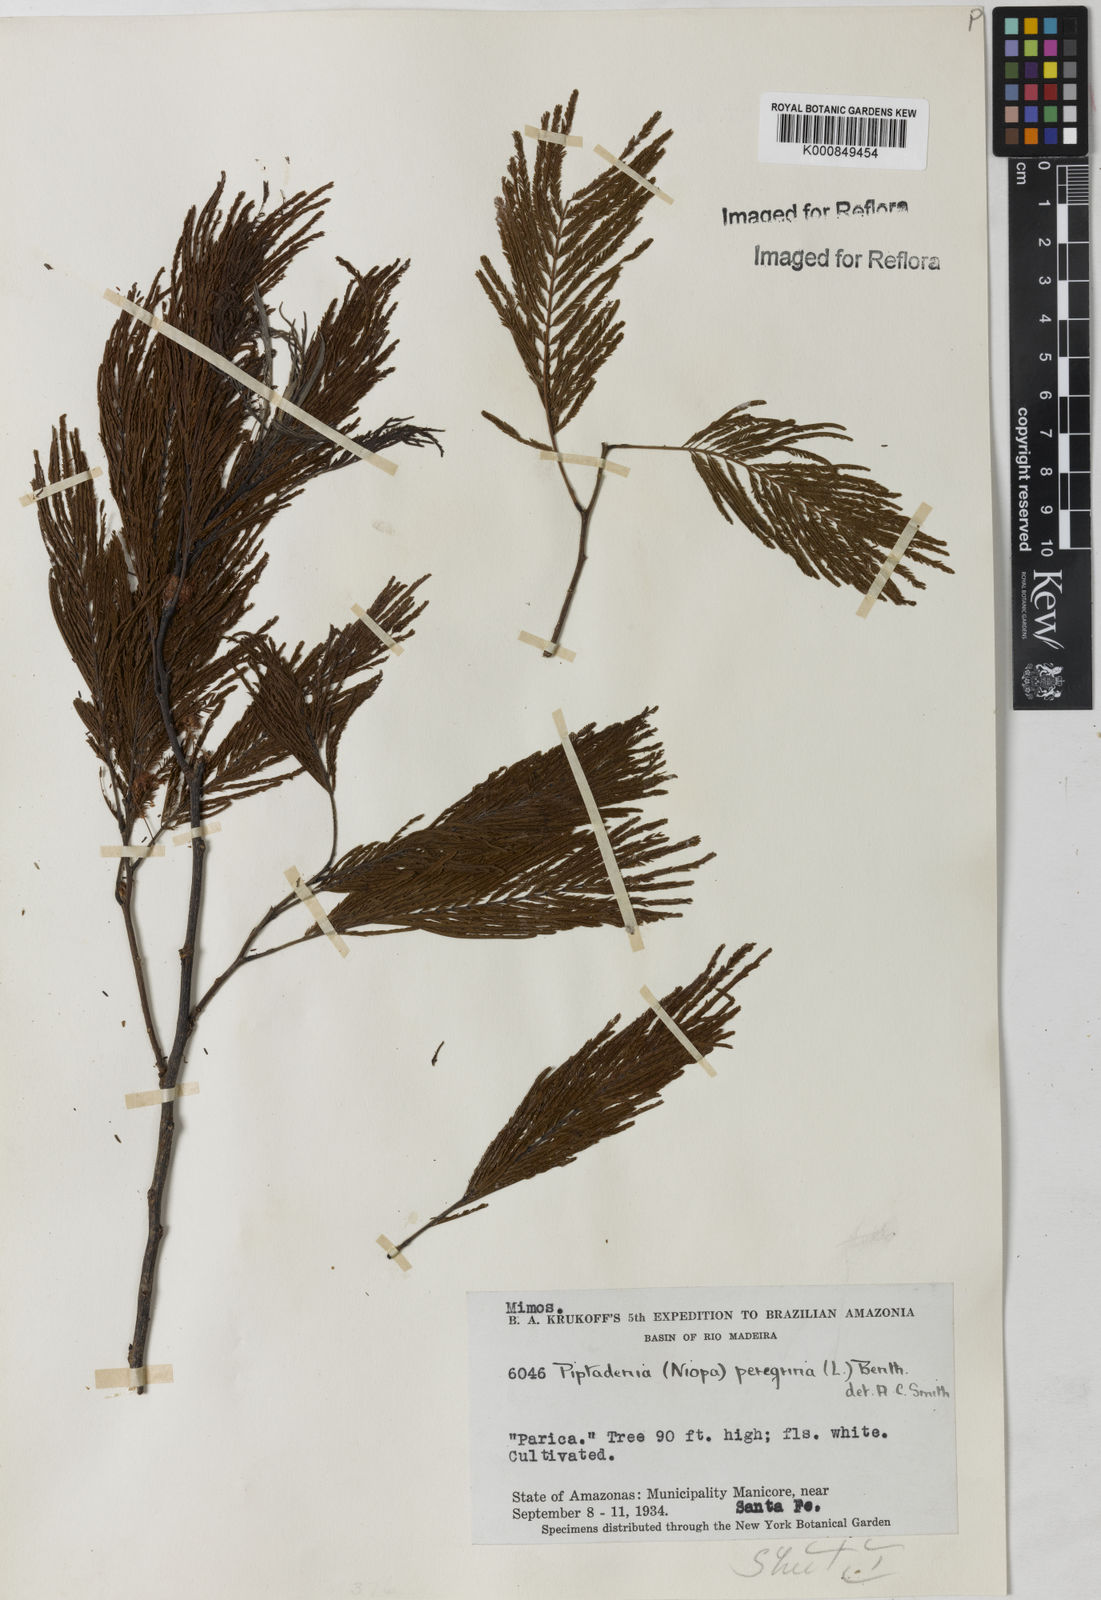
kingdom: Plantae
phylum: Tracheophyta
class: Magnoliopsida
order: Fabales
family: Fabaceae
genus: Anadenanthera
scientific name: Anadenanthera peregrina
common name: Cohoba
